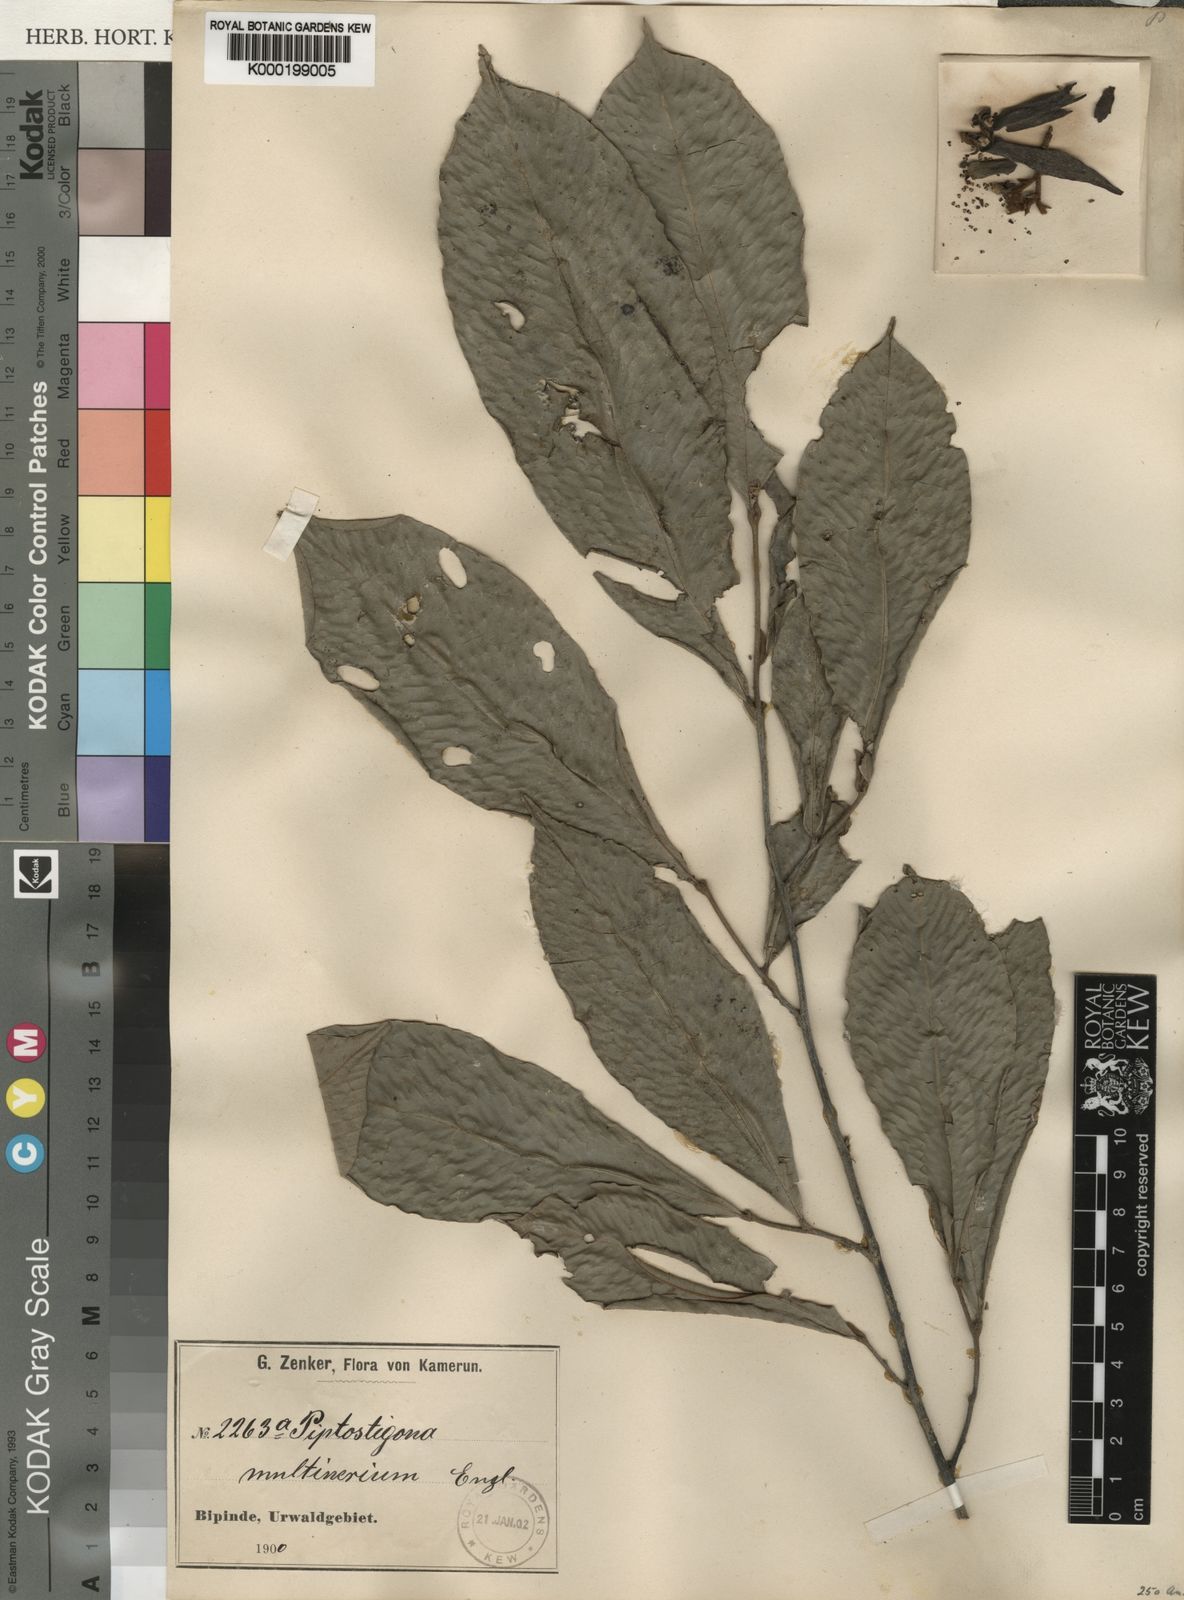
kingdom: Plantae
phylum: Tracheophyta
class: Magnoliopsida
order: Magnoliales
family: Annonaceae
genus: Piptostigma
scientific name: Piptostigma multinervium
